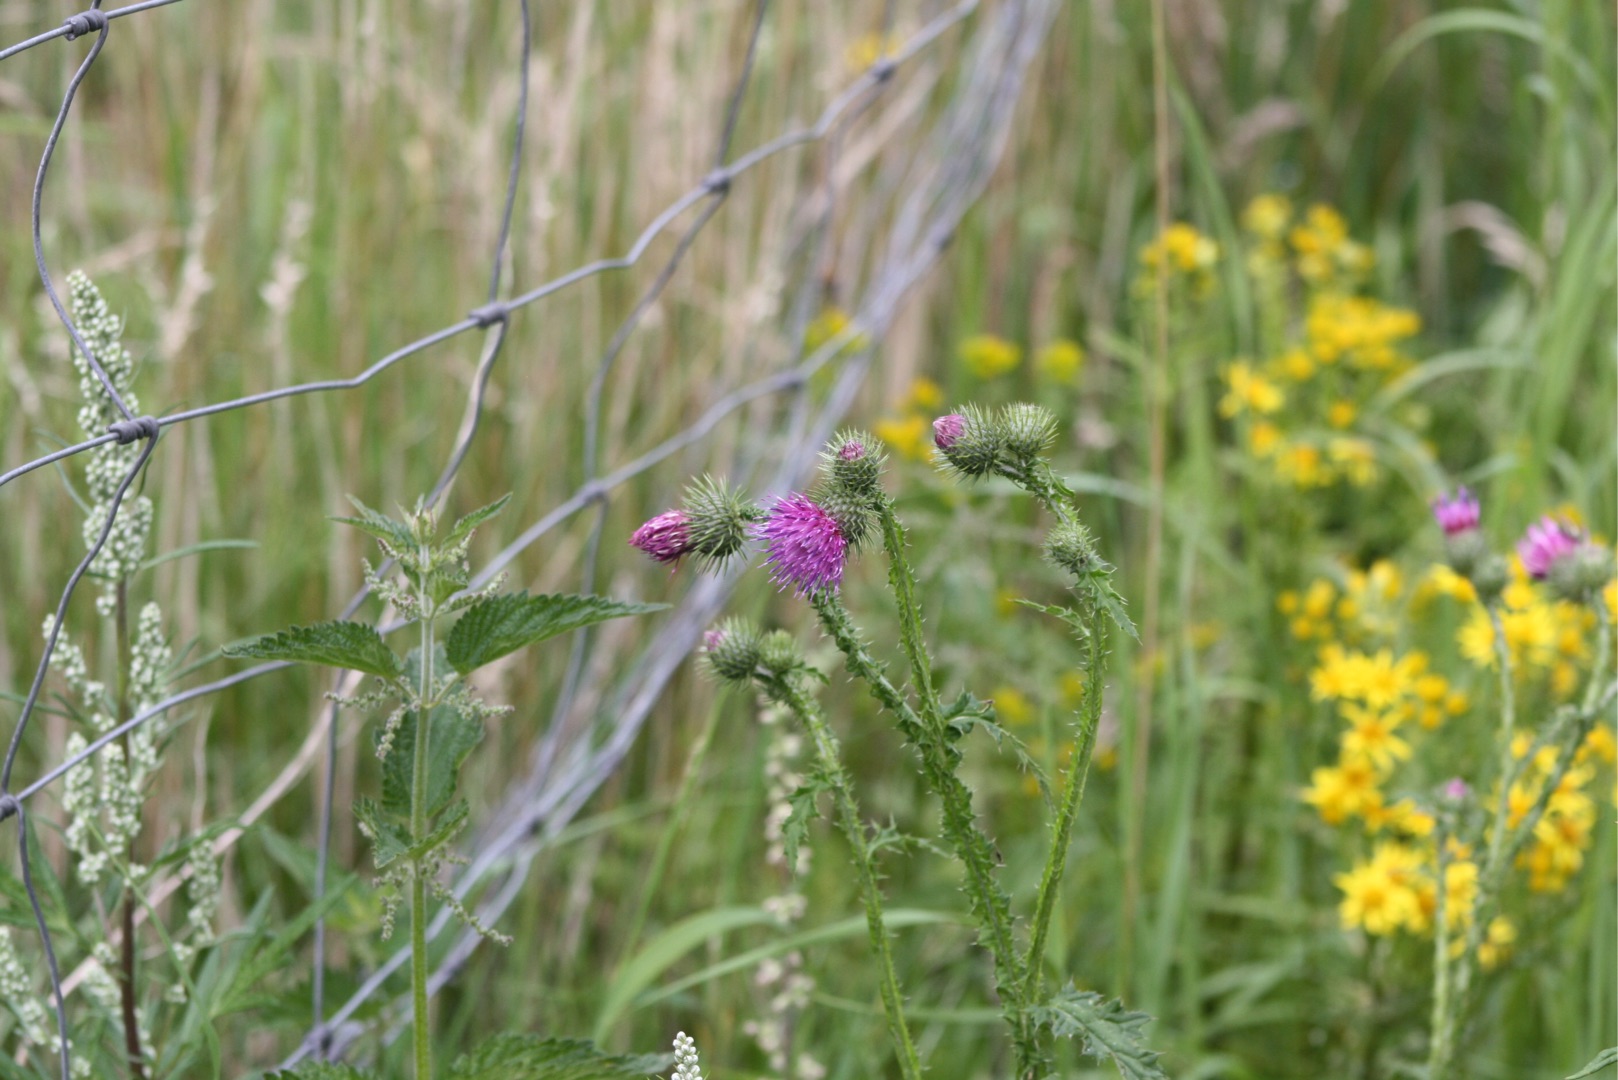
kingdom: Plantae
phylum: Tracheophyta
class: Magnoliopsida
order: Asterales
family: Asteraceae
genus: Carduus
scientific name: Carduus crispus
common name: Kruset tidsel
